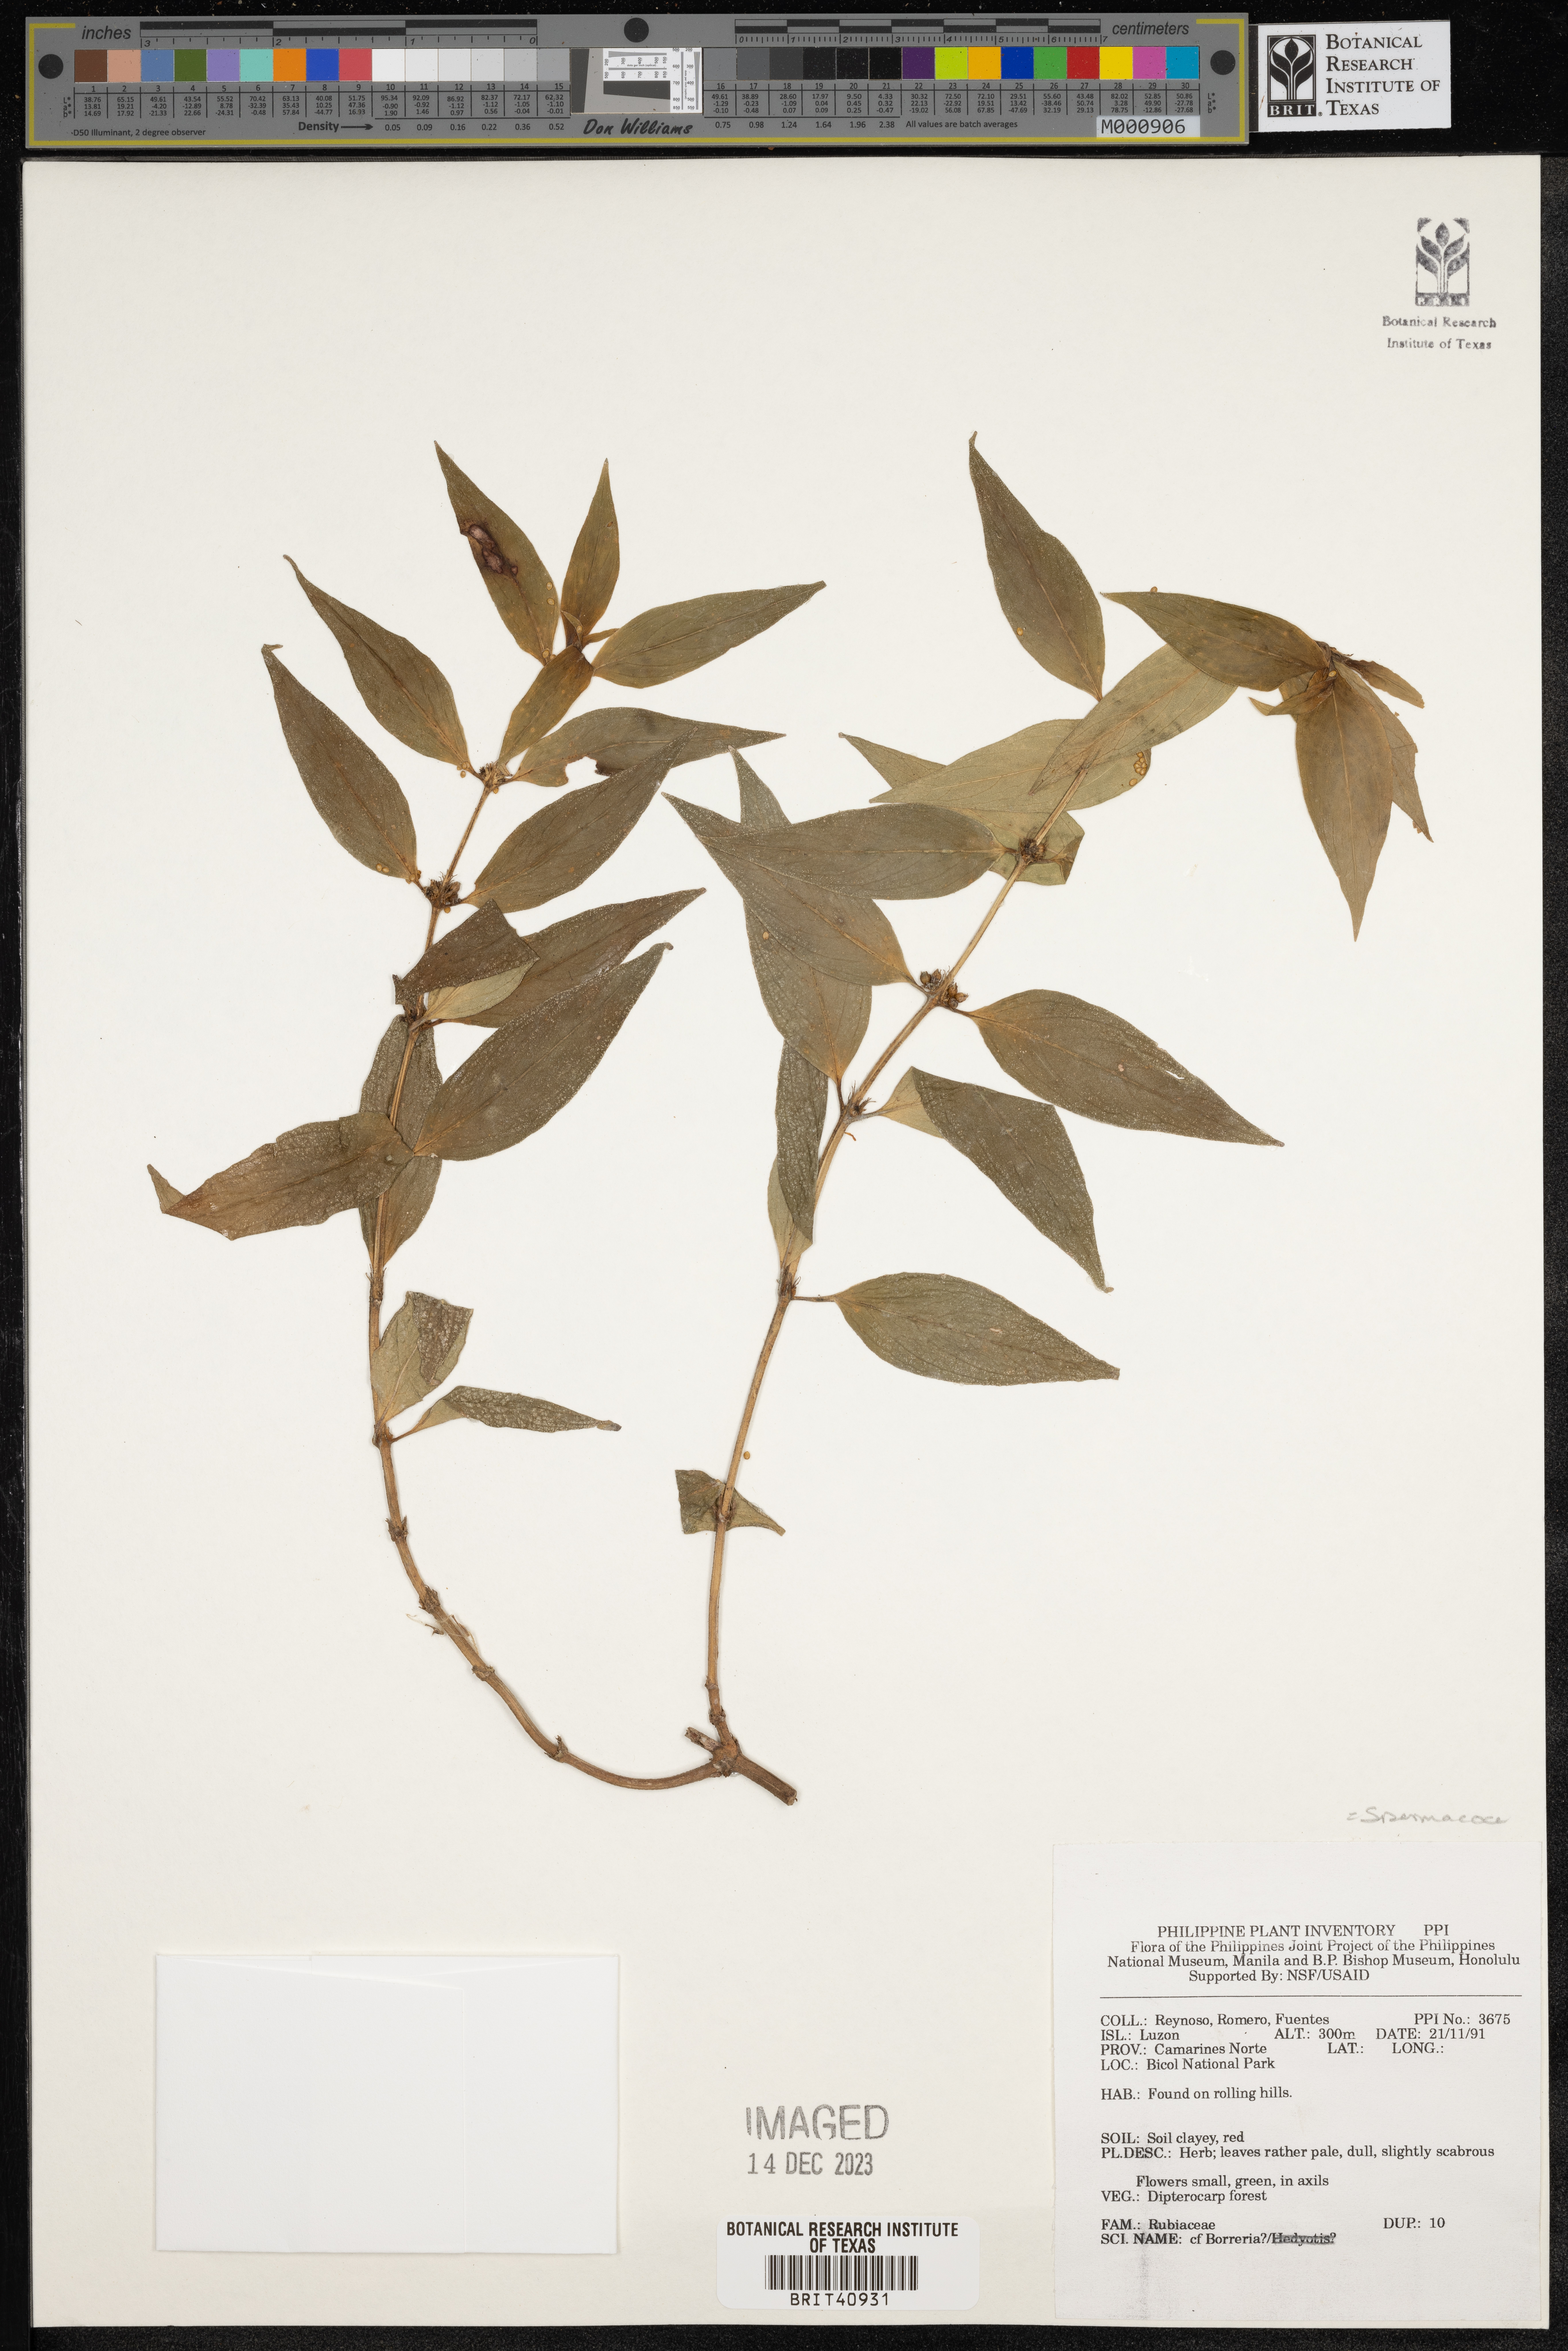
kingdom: Plantae
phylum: Tracheophyta
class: Magnoliopsida
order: Gentianales
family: Rubiaceae
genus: Spermacoce
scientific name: Spermacoce
